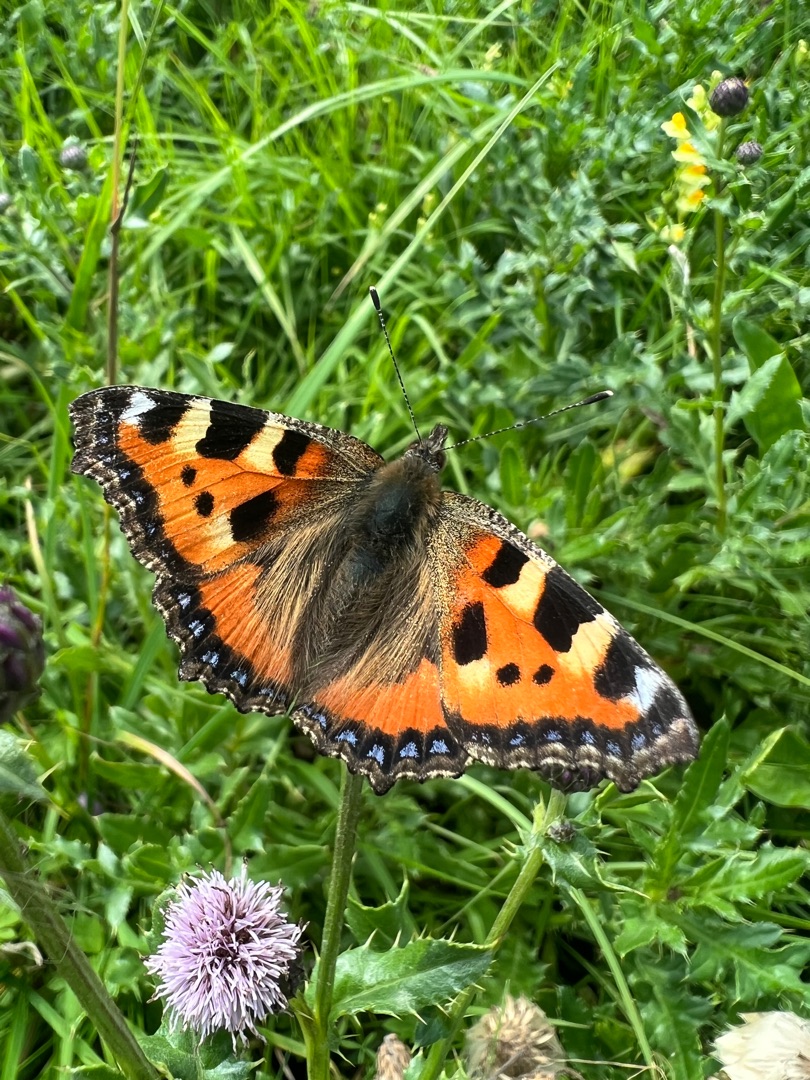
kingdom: Animalia
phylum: Arthropoda
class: Insecta
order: Lepidoptera
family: Nymphalidae
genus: Aglais
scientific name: Aglais urticae
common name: Nældens takvinge
